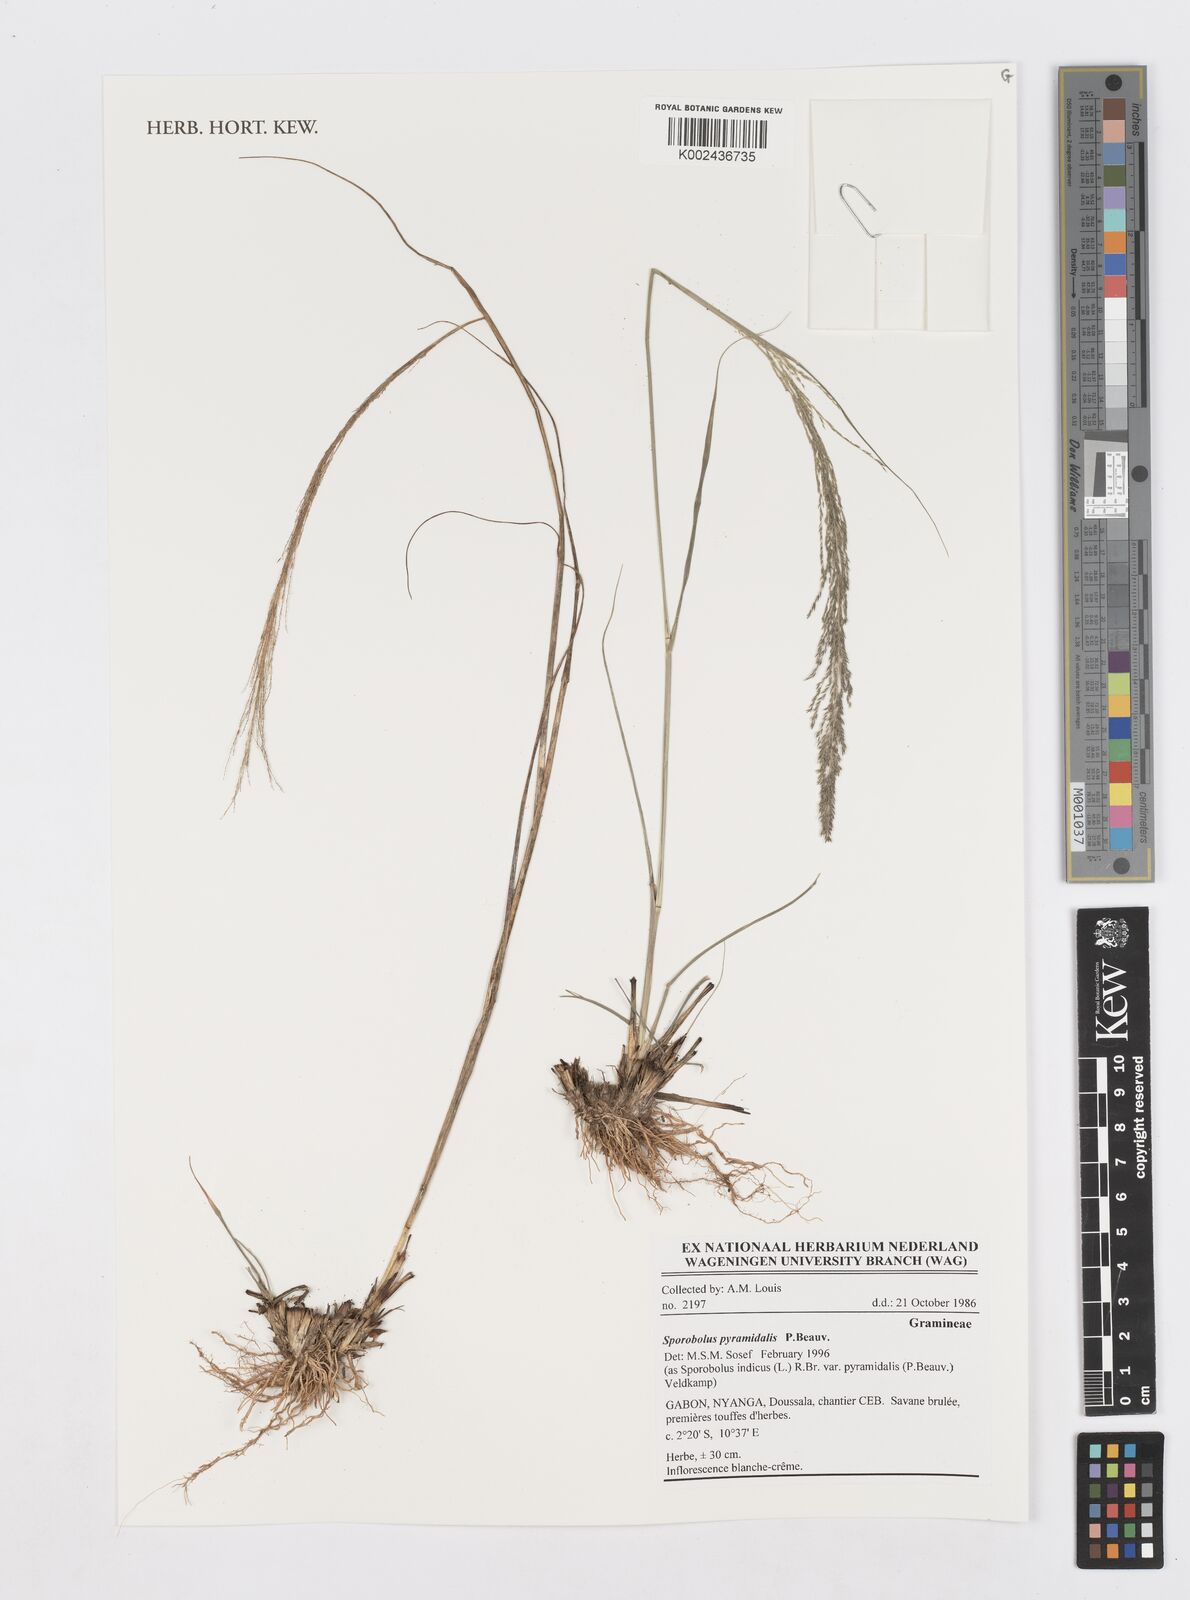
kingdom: Plantae
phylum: Tracheophyta
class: Liliopsida
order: Poales
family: Poaceae
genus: Sporobolus
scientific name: Sporobolus pyramidalis
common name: West indian dropseed
